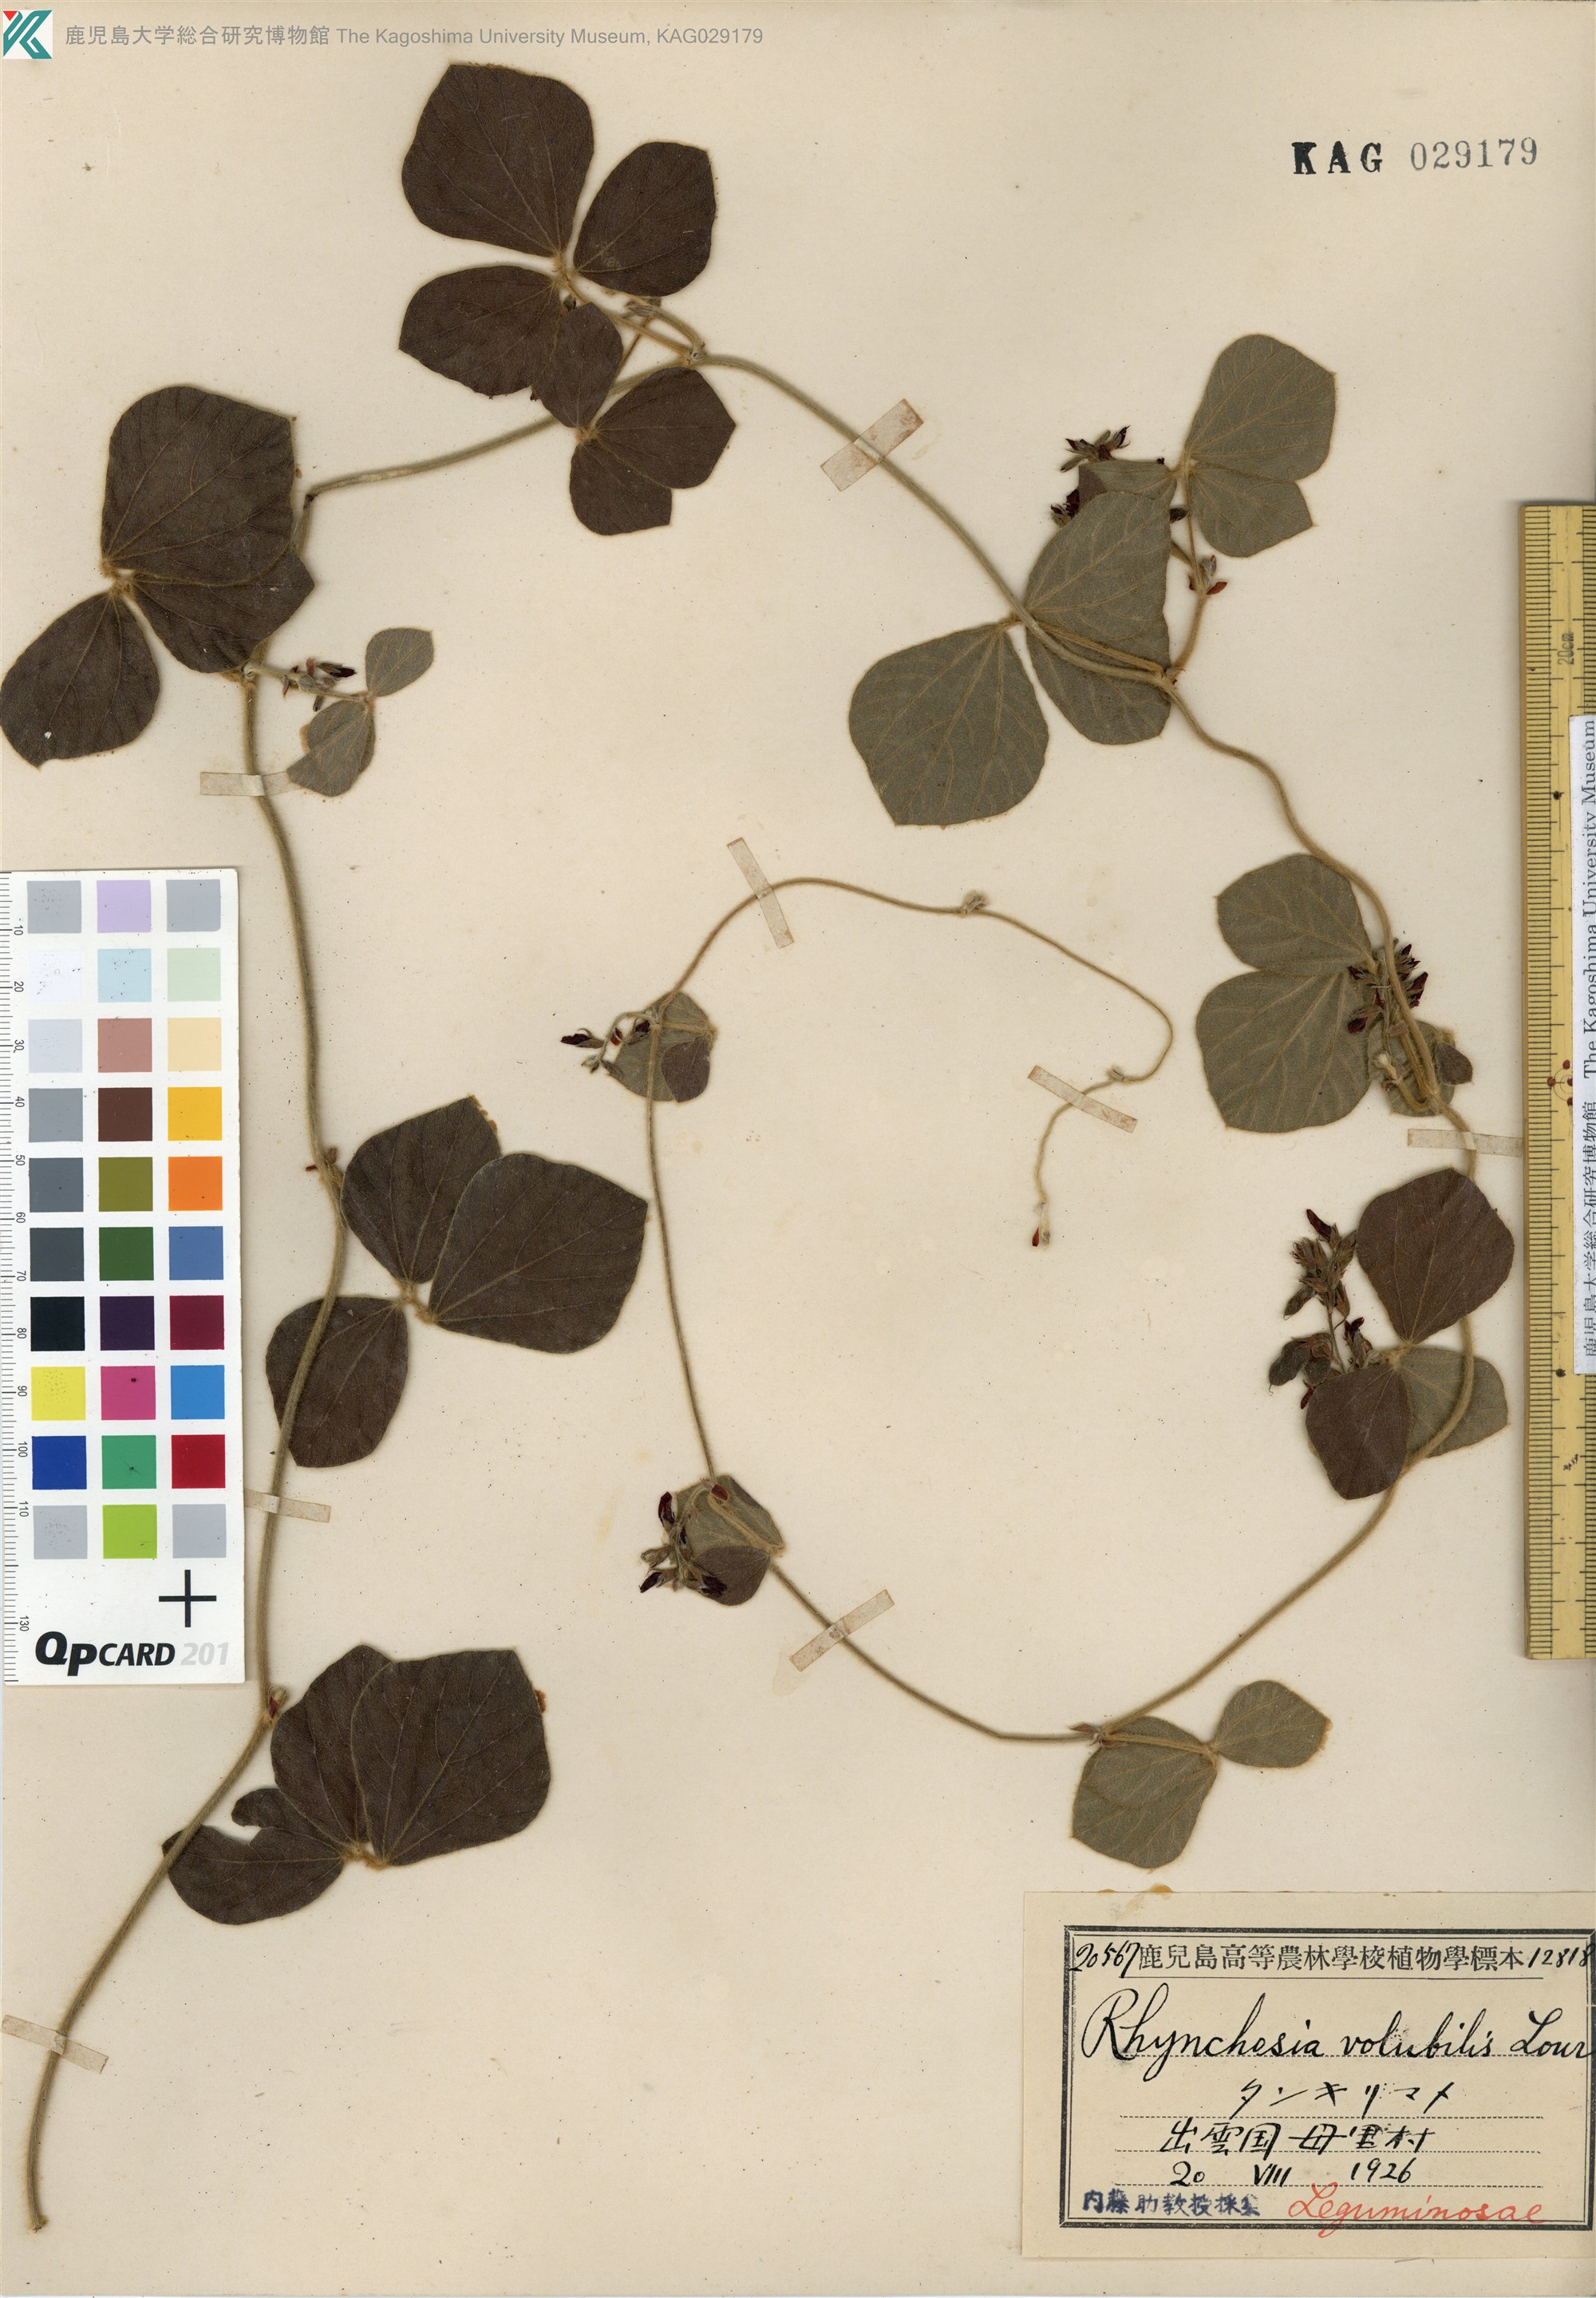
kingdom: Plantae
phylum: Tracheophyta
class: Magnoliopsida
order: Fabales
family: Fabaceae
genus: Rhynchosia
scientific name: Rhynchosia volubilis
